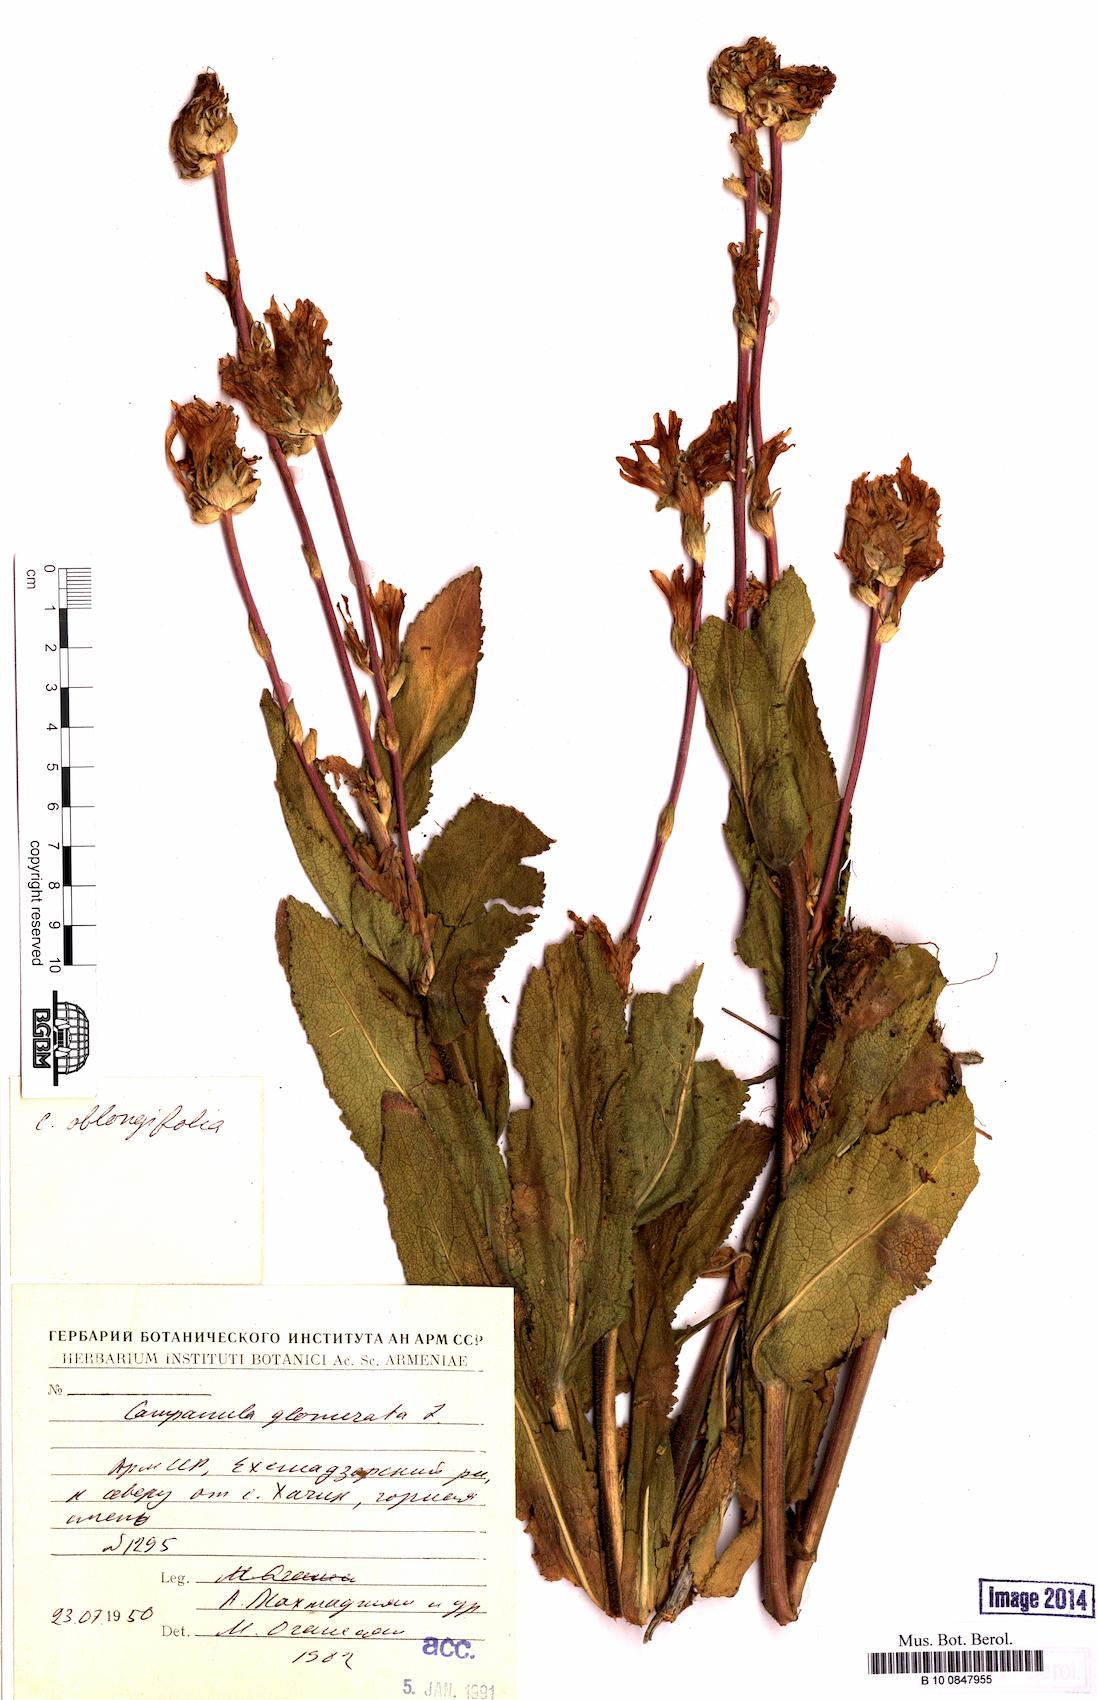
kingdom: Plantae
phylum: Tracheophyta
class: Magnoliopsida
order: Asterales
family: Campanulaceae
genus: Campanula
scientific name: Campanula glomerata
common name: Clustered bellflower
